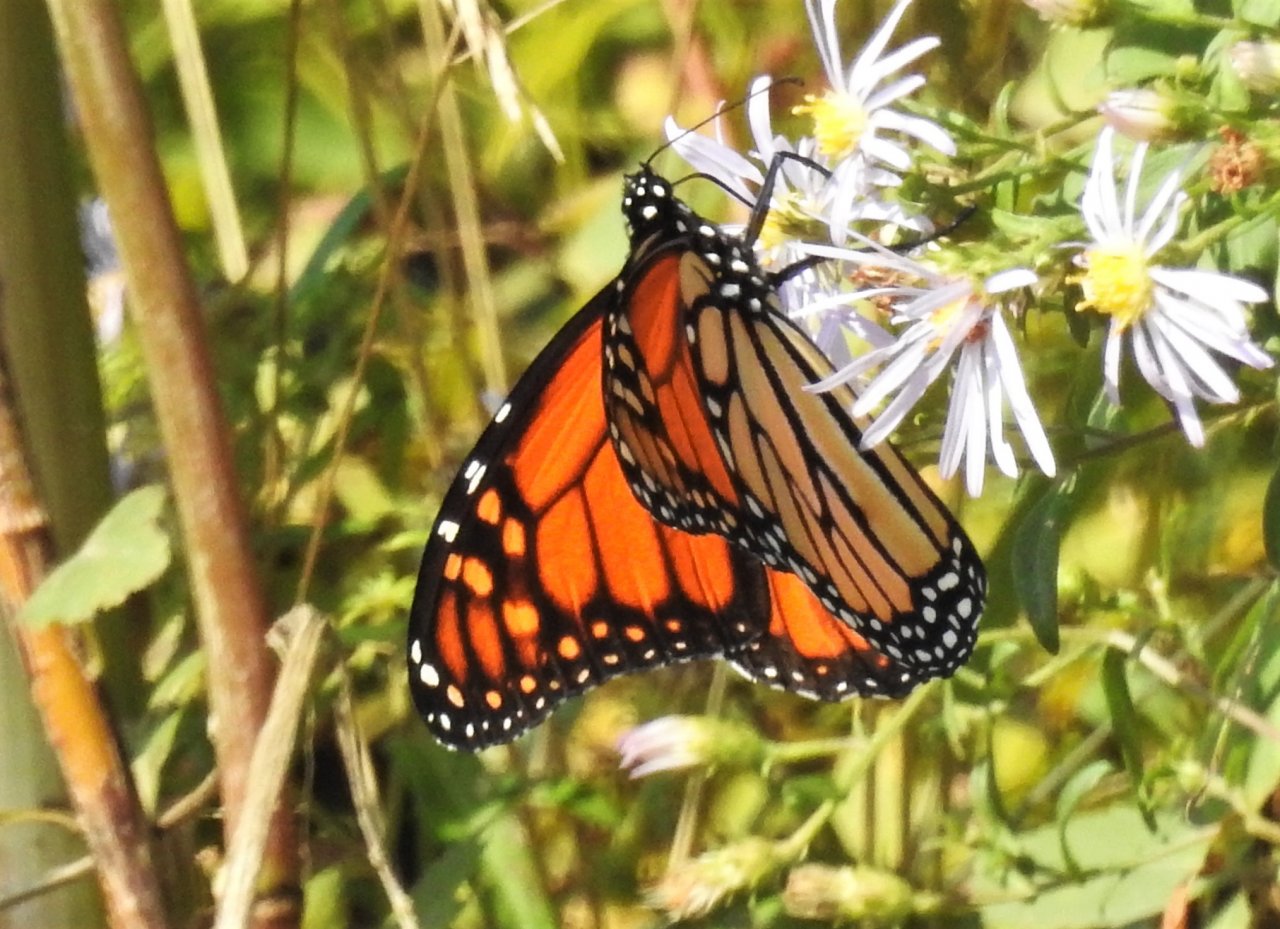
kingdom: Animalia
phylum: Arthropoda
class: Insecta
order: Lepidoptera
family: Nymphalidae
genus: Danaus
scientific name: Danaus plexippus
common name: Monarch
